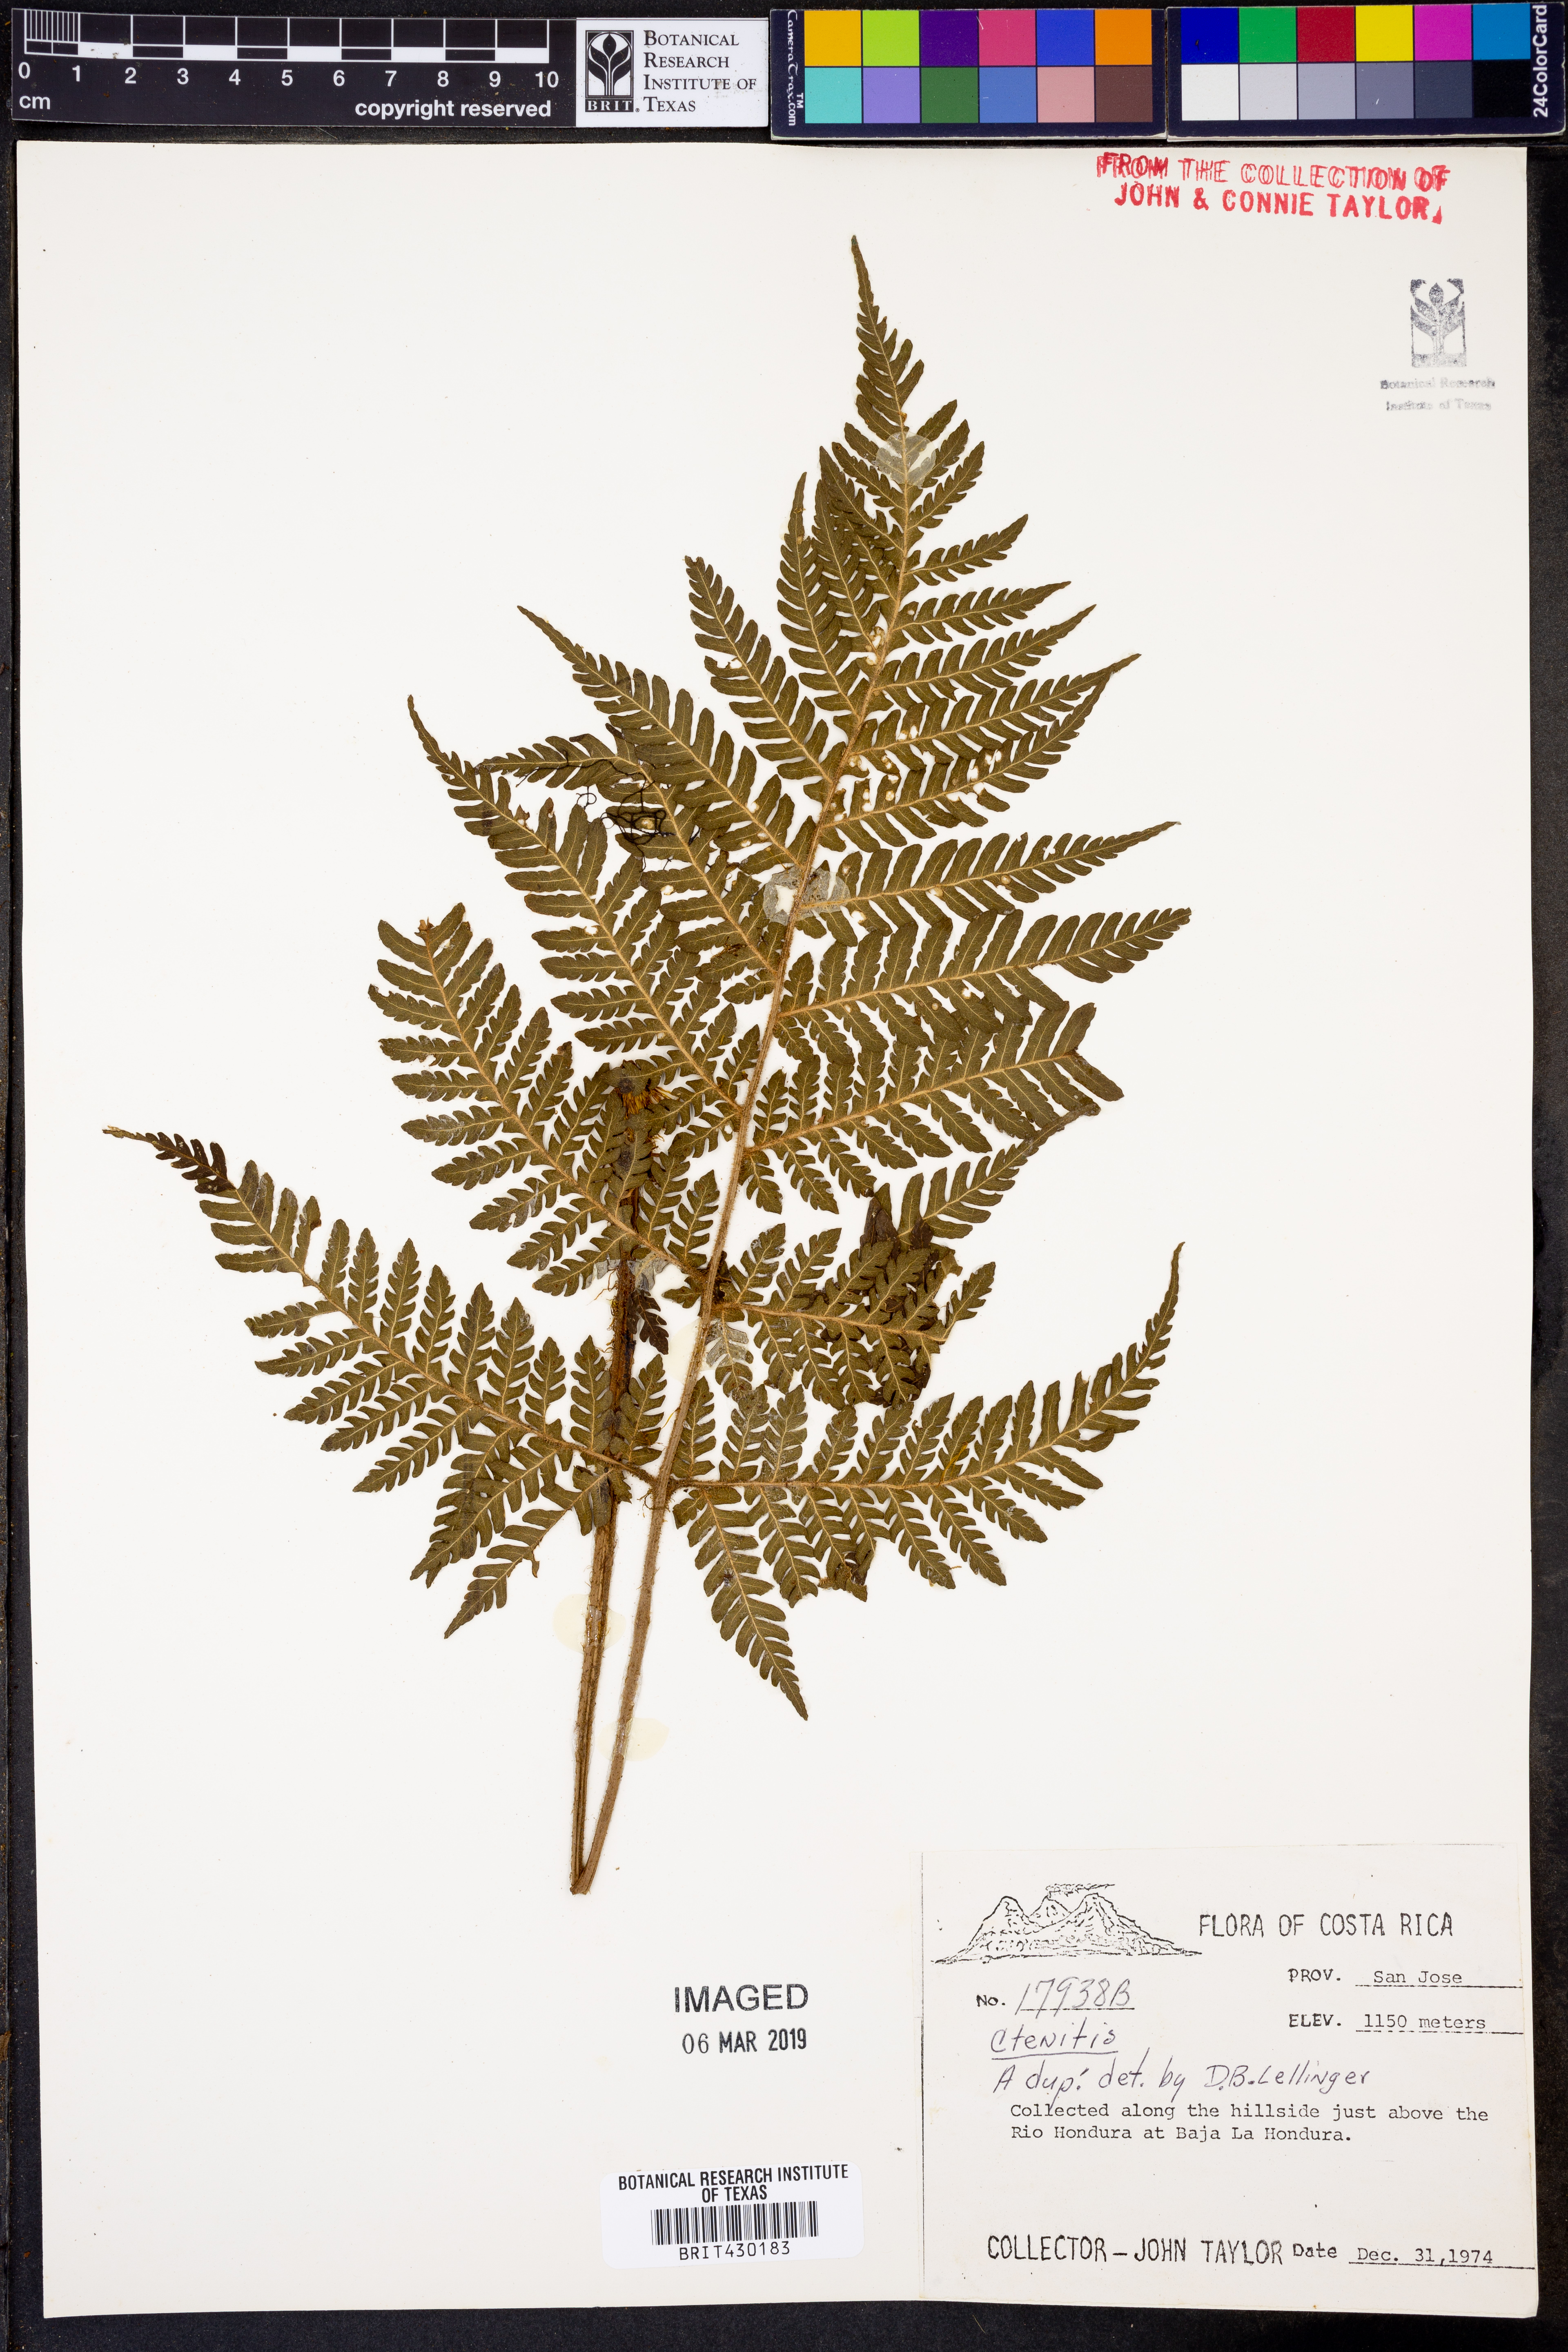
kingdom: Plantae
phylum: Tracheophyta
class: Polypodiopsida
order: Polypodiales
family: Dryopteridaceae
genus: Ctenitis
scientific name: Ctenitis
